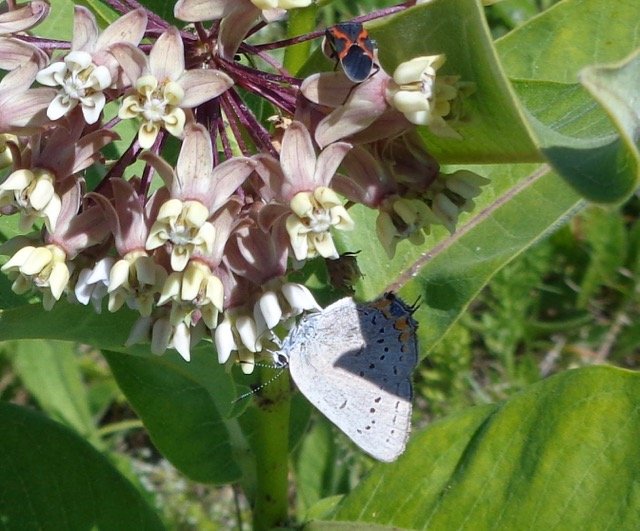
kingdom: Animalia
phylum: Arthropoda
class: Insecta
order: Lepidoptera
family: Lycaenidae
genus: Strymon
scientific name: Strymon acadica
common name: Acadian Hairstreak
